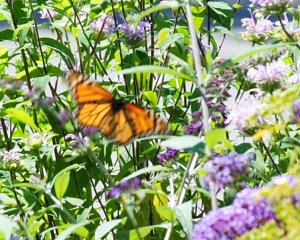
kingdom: Animalia
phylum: Arthropoda
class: Insecta
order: Lepidoptera
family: Nymphalidae
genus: Danaus
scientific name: Danaus plexippus
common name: Monarch
